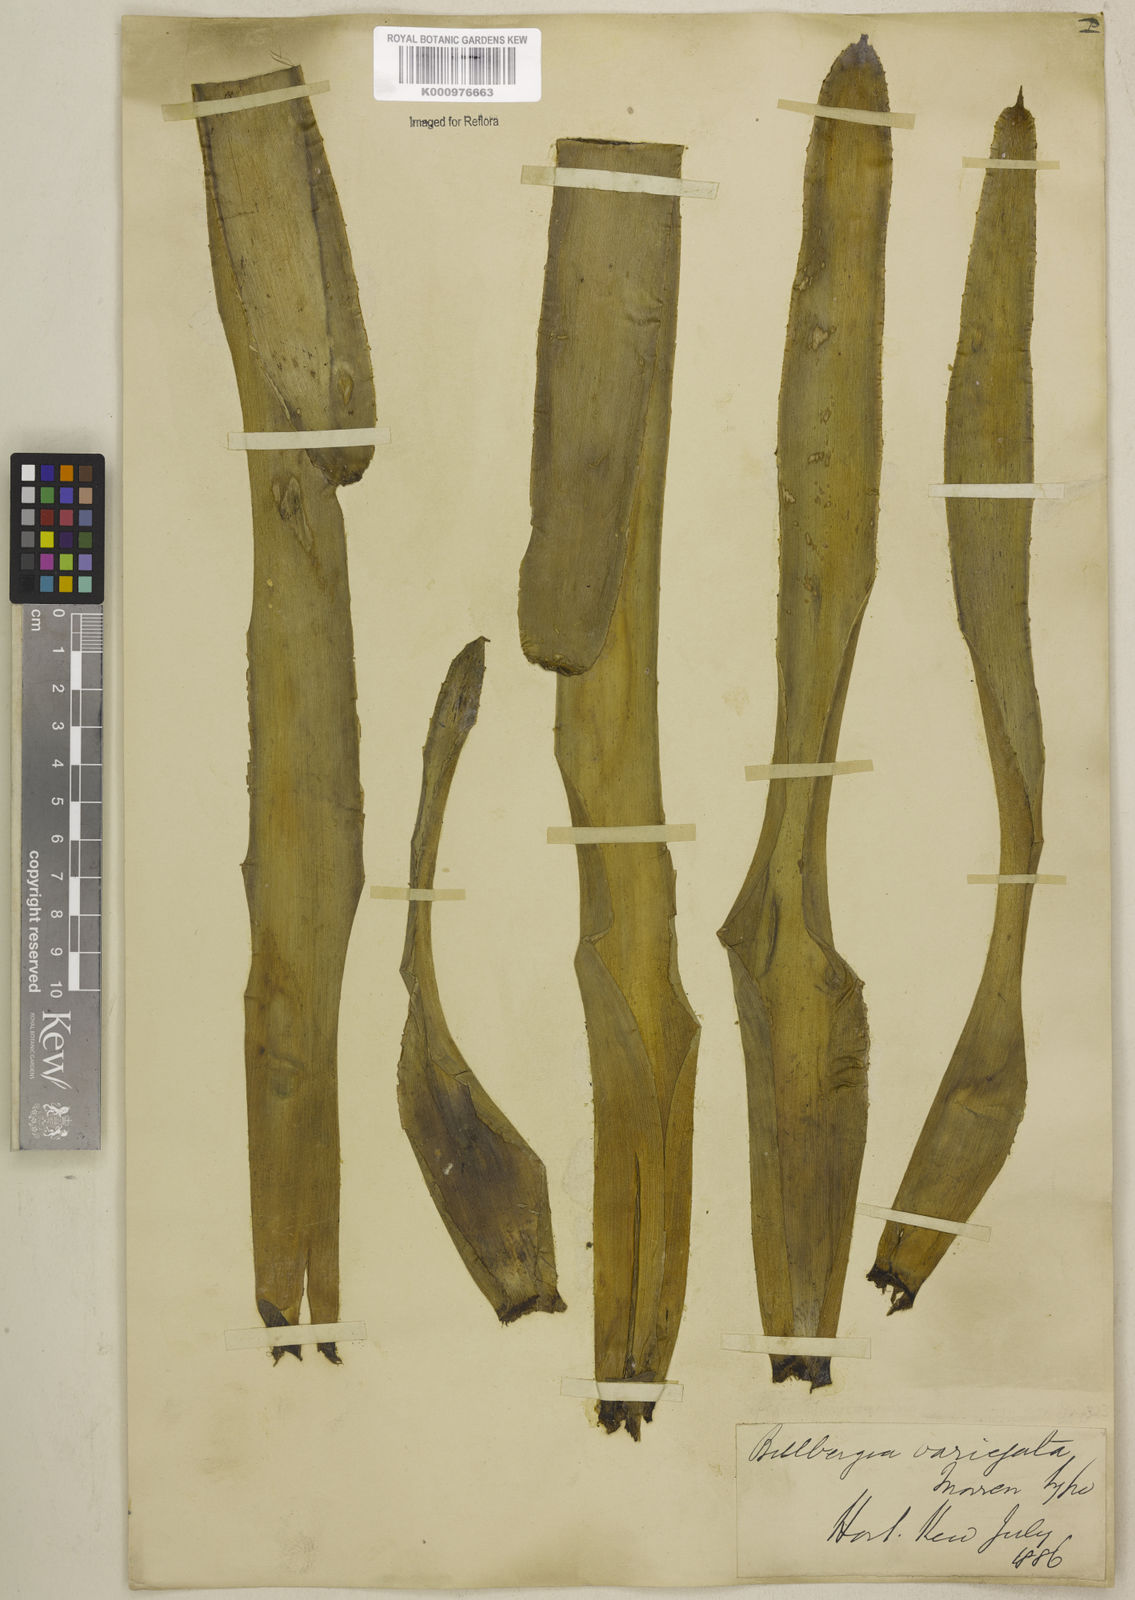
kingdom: Plantae
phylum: Tracheophyta
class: Liliopsida
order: Poales
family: Bromeliaceae
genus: Billbergia
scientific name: Billbergia amoena
